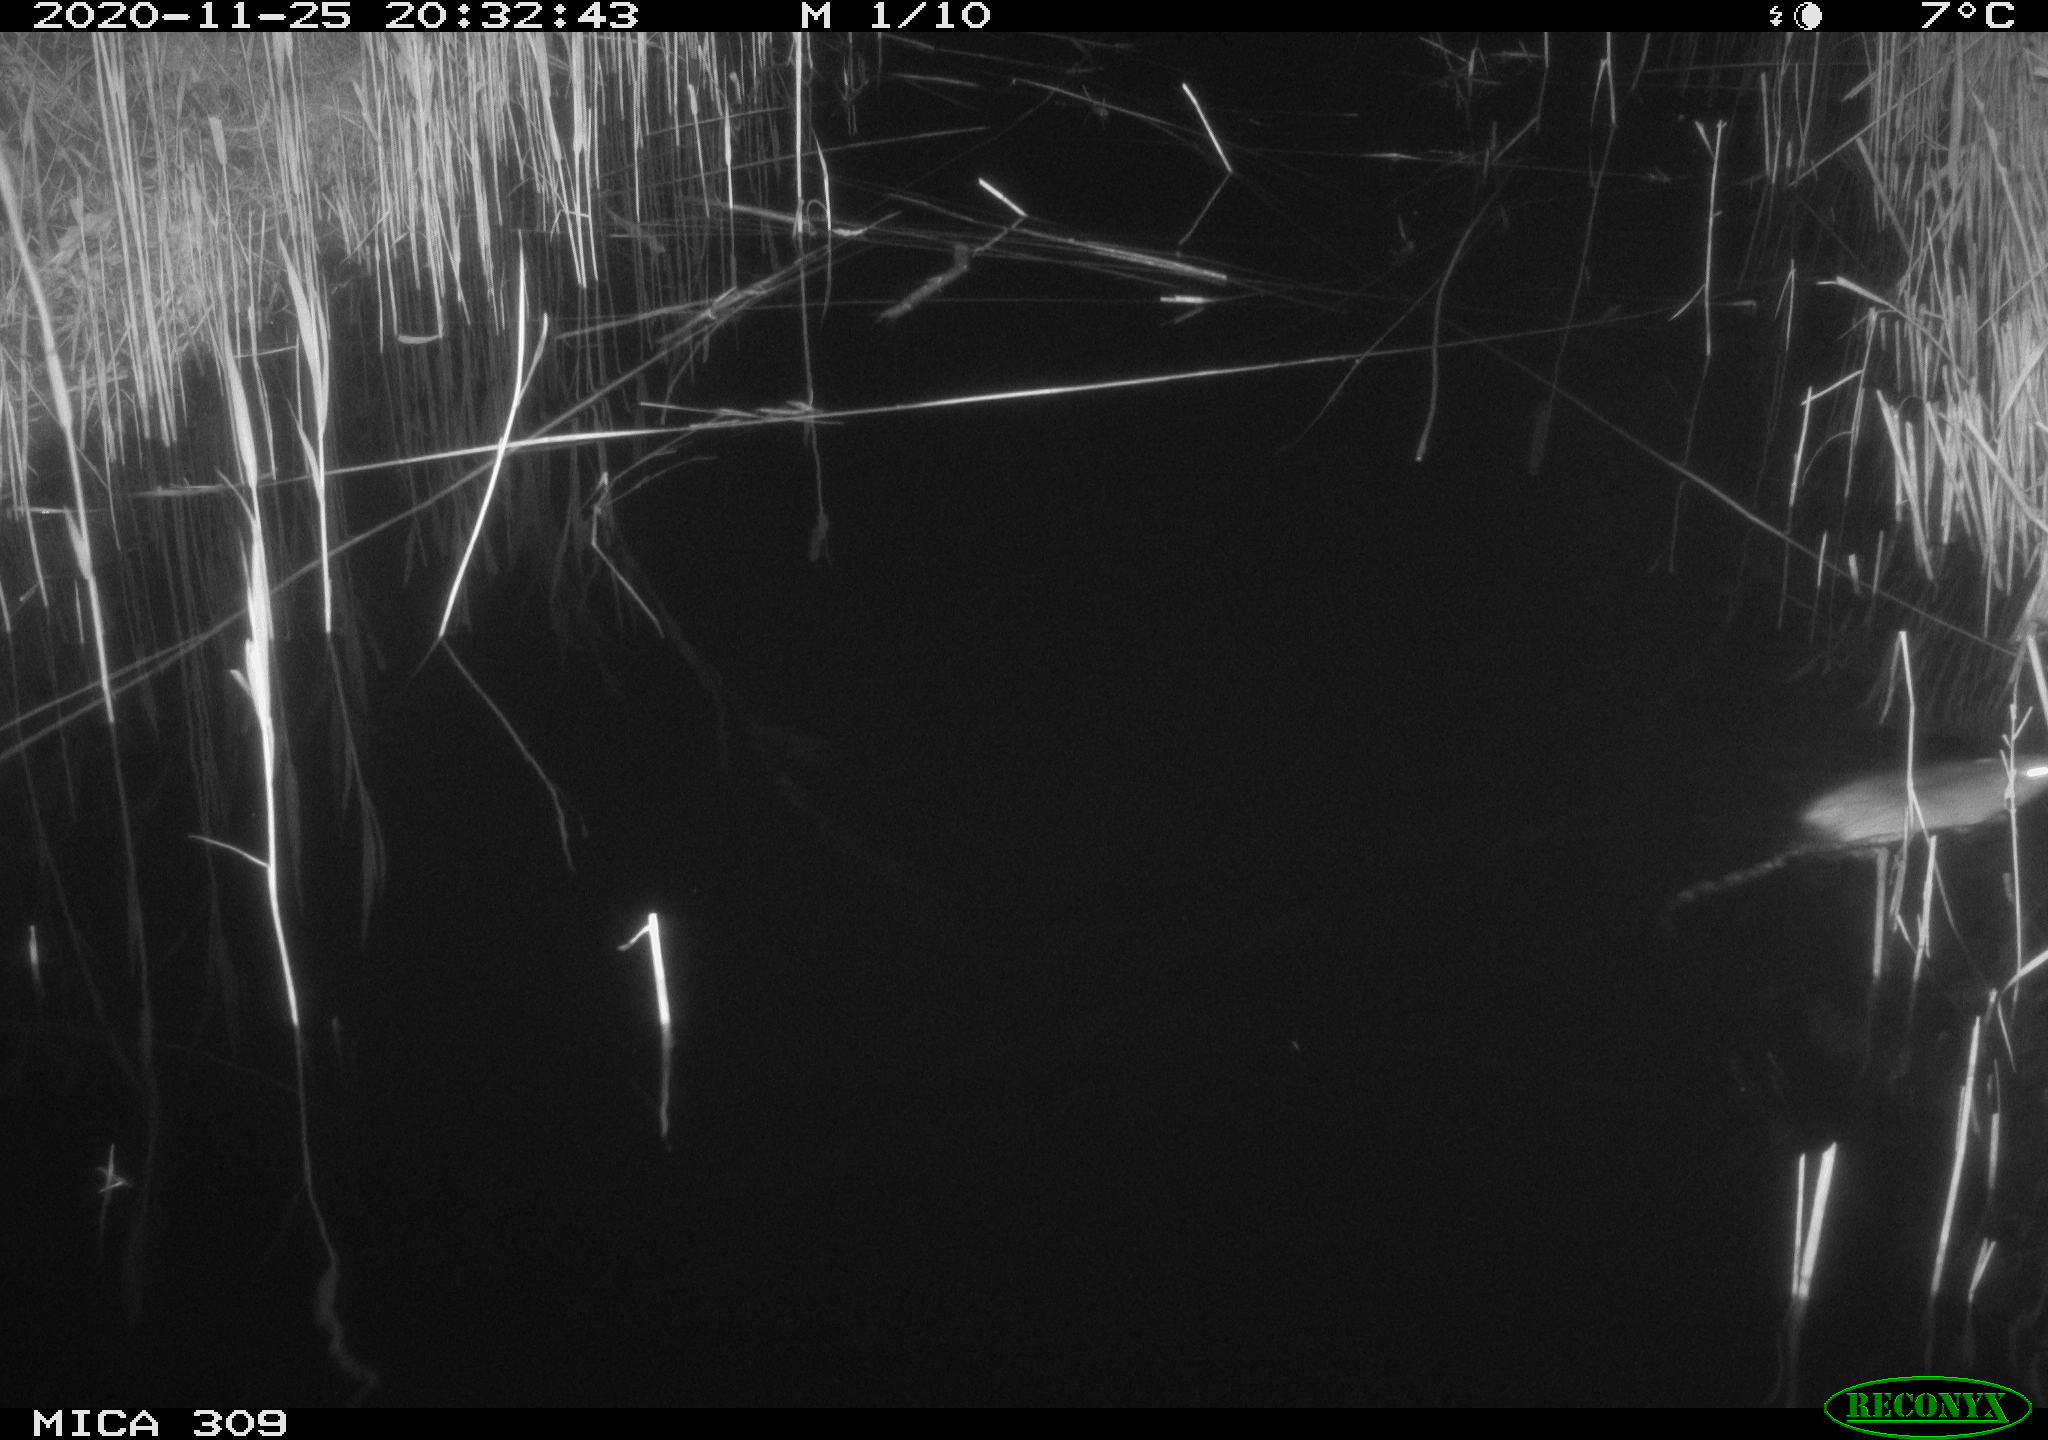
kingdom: Animalia
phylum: Chordata
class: Mammalia
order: Rodentia
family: Muridae
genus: Rattus
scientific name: Rattus norvegicus
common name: Brown rat
